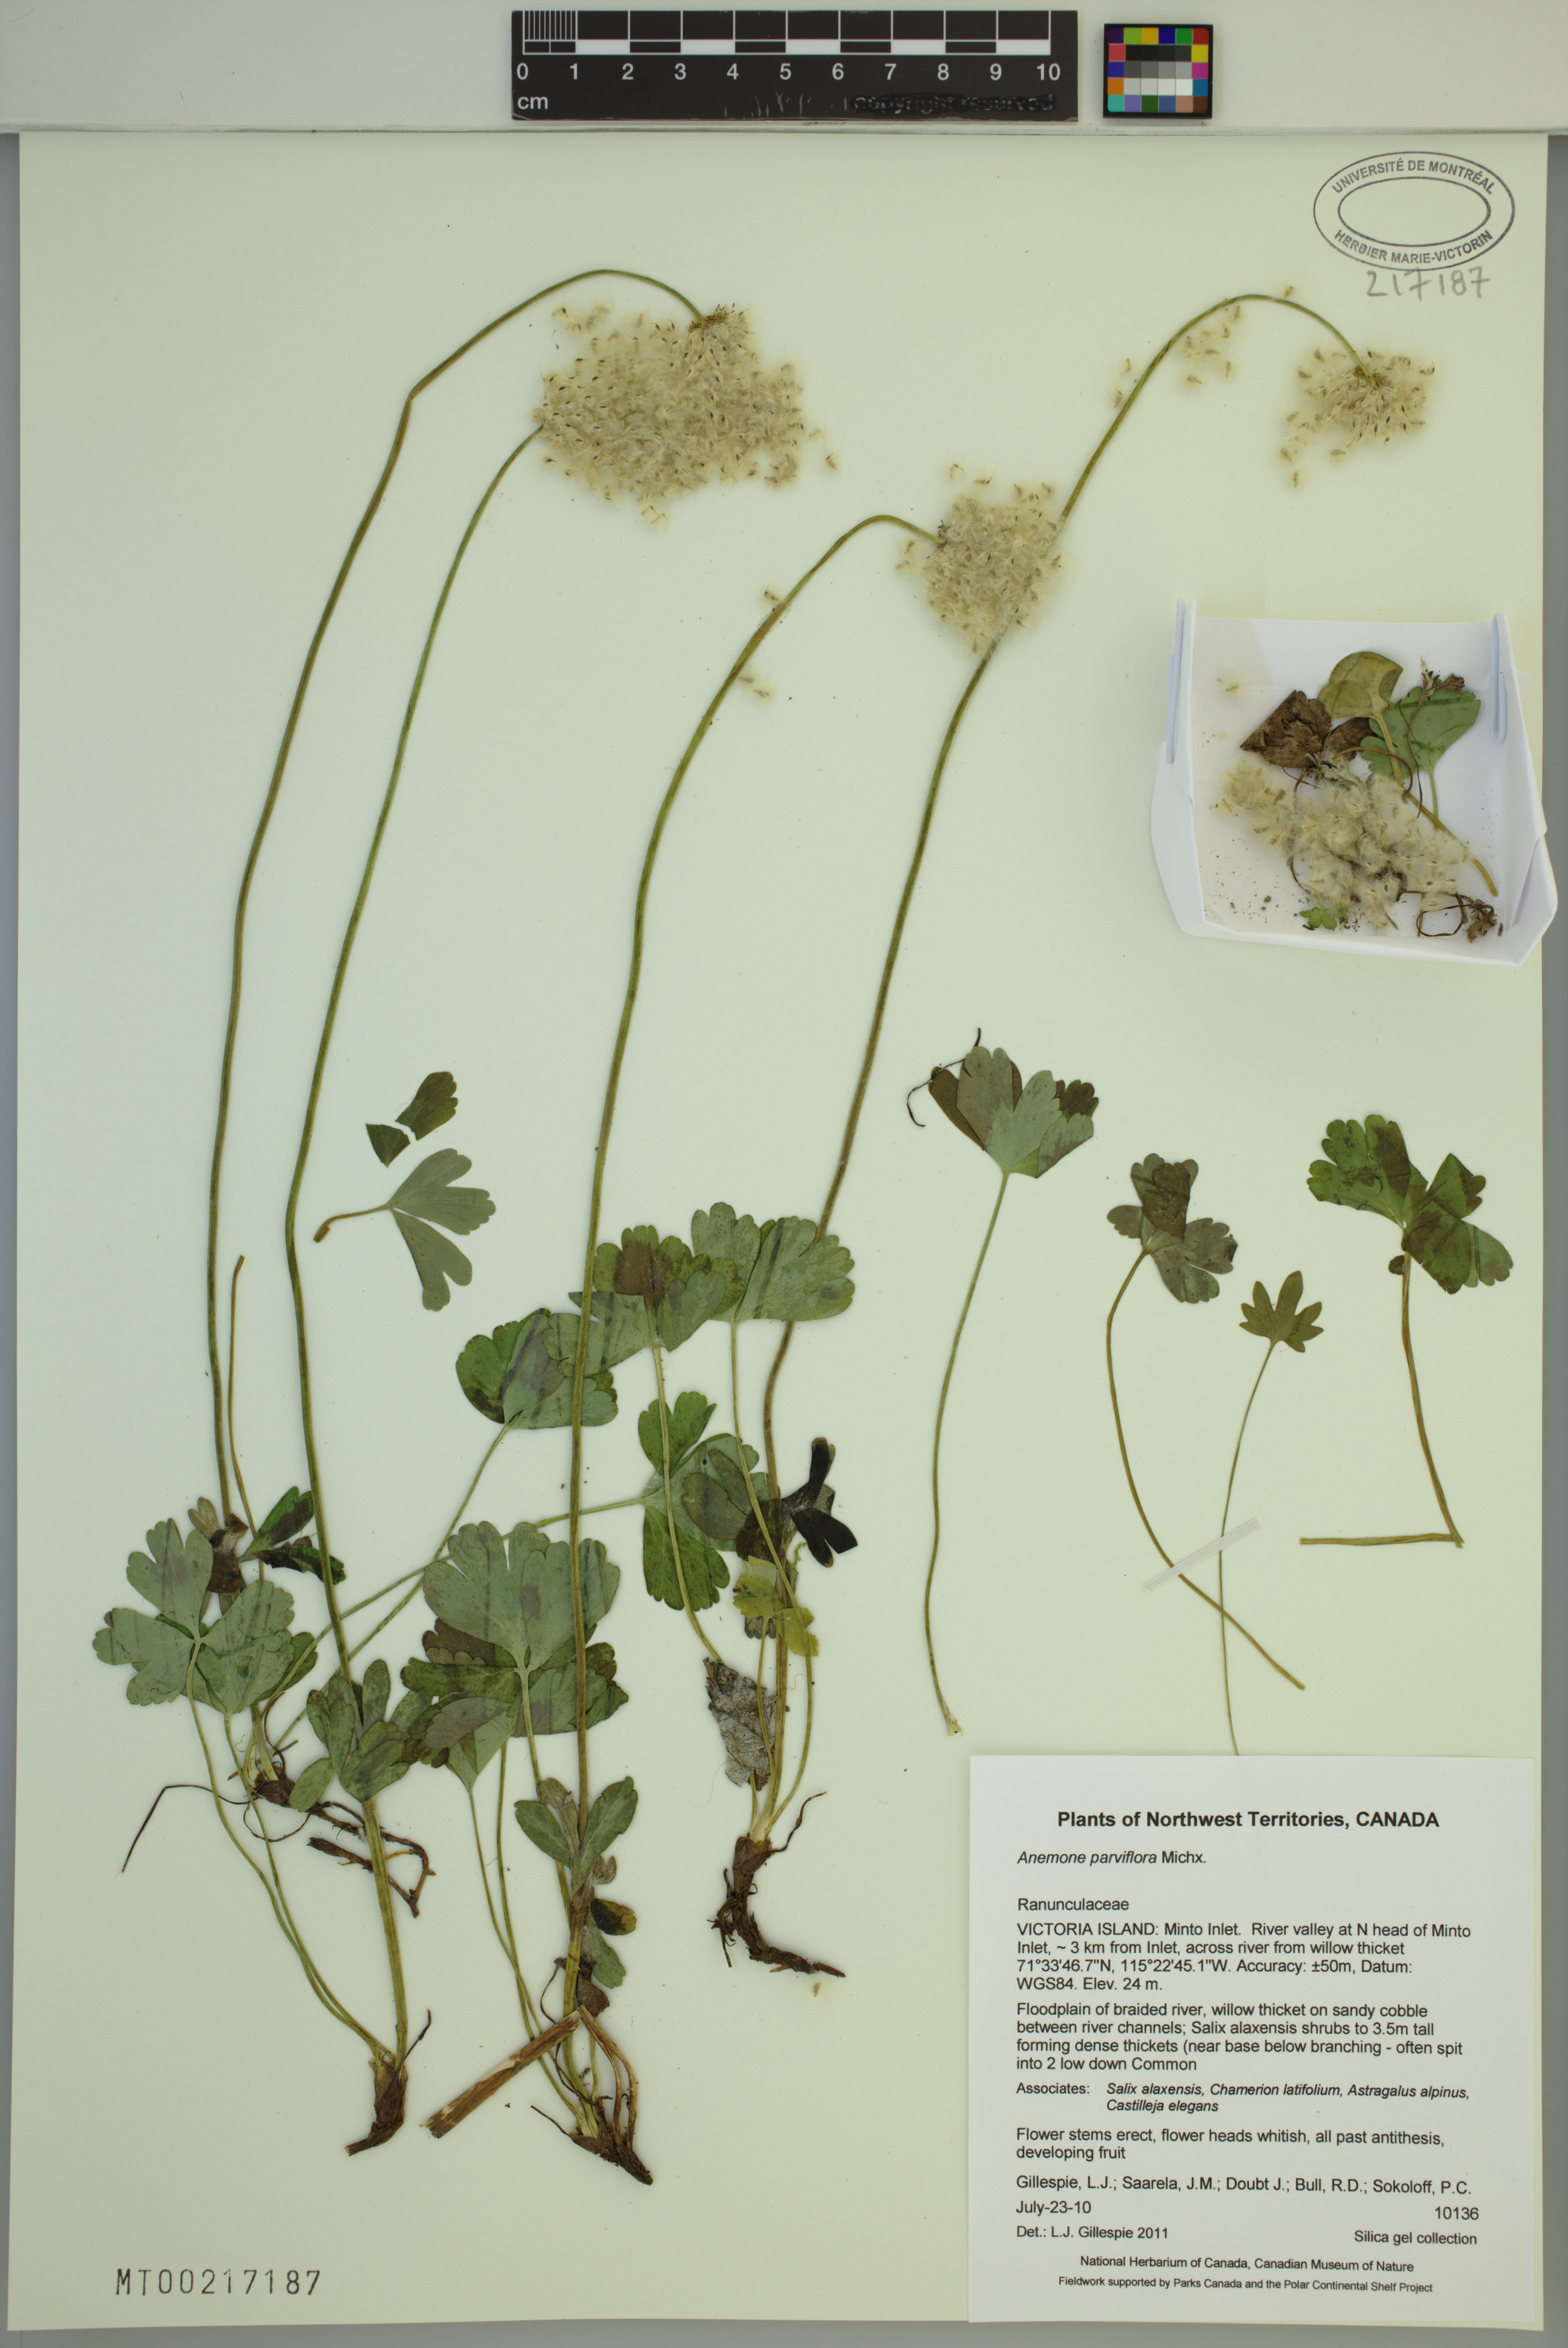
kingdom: Plantae
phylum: Tracheophyta
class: Magnoliopsida
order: Ranunculales
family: Ranunculaceae
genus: Anemone
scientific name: Anemone parviflora
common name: Northern anemone
